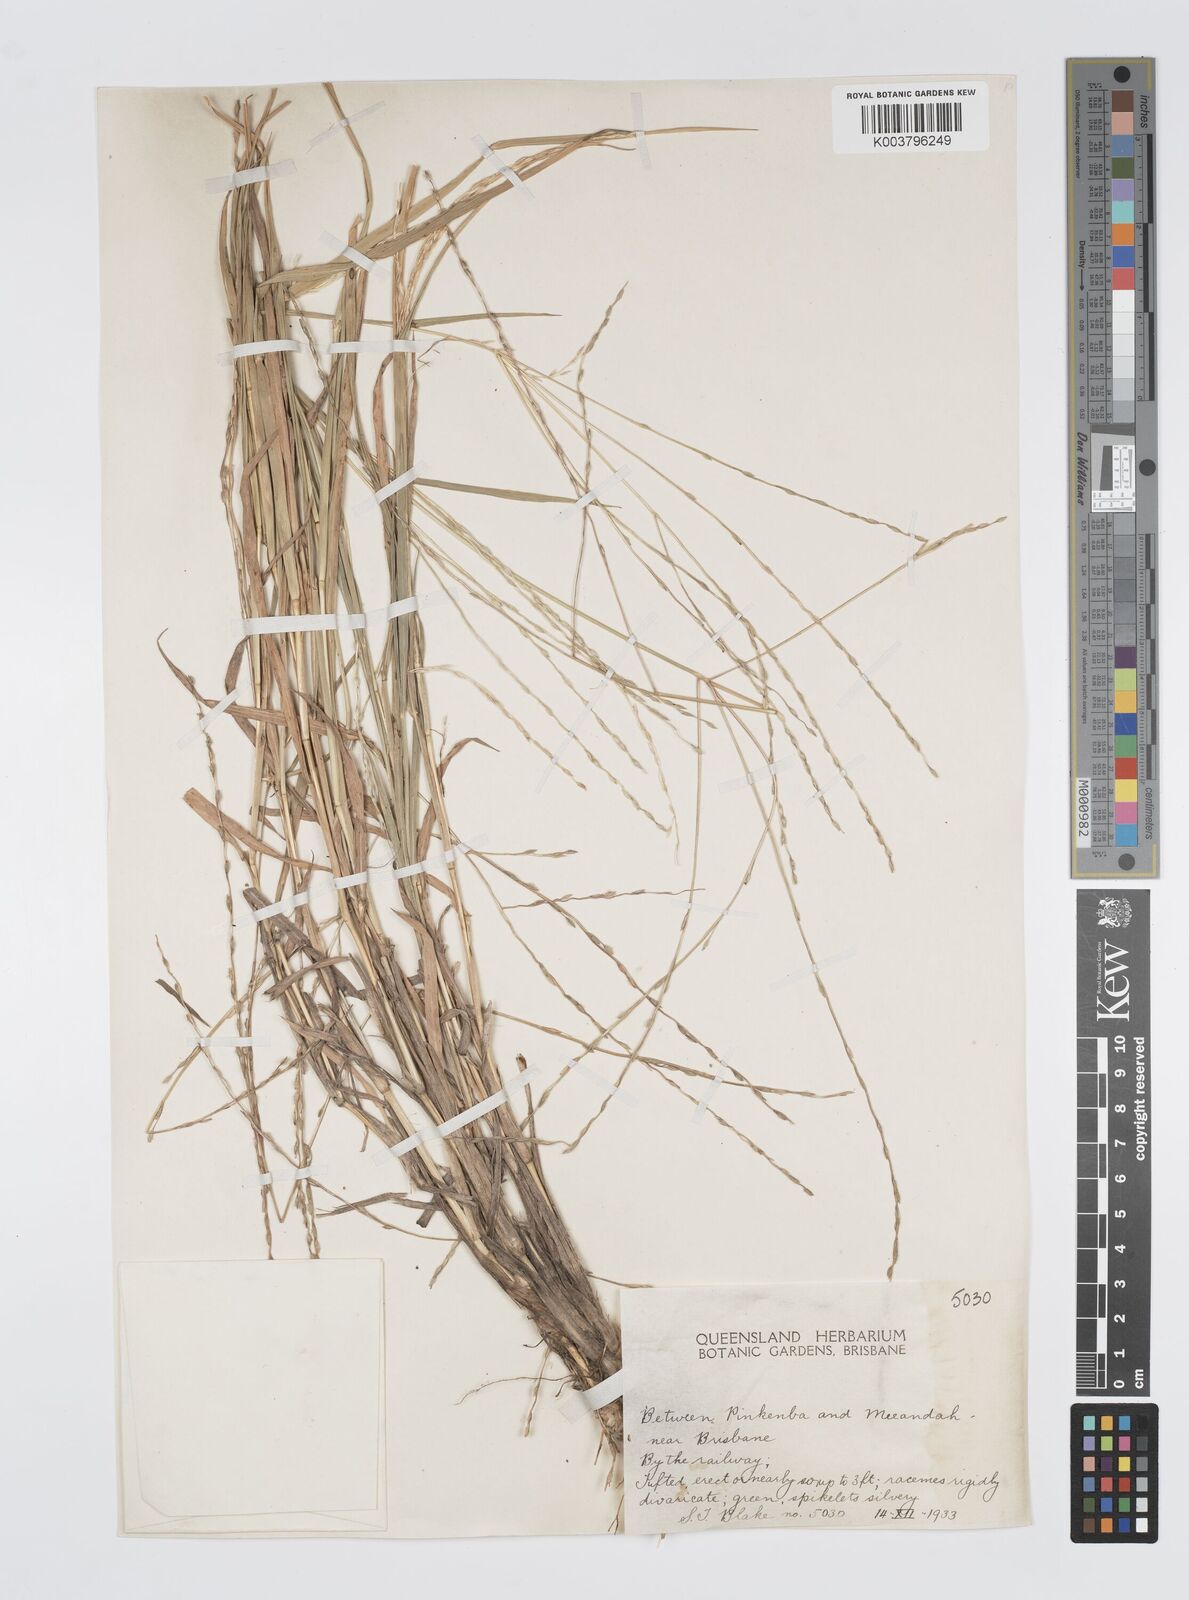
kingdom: Plantae
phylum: Tracheophyta
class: Liliopsida
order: Poales
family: Poaceae
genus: Digitaria
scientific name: Digitaria divaricatissima
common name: Crabgrass
